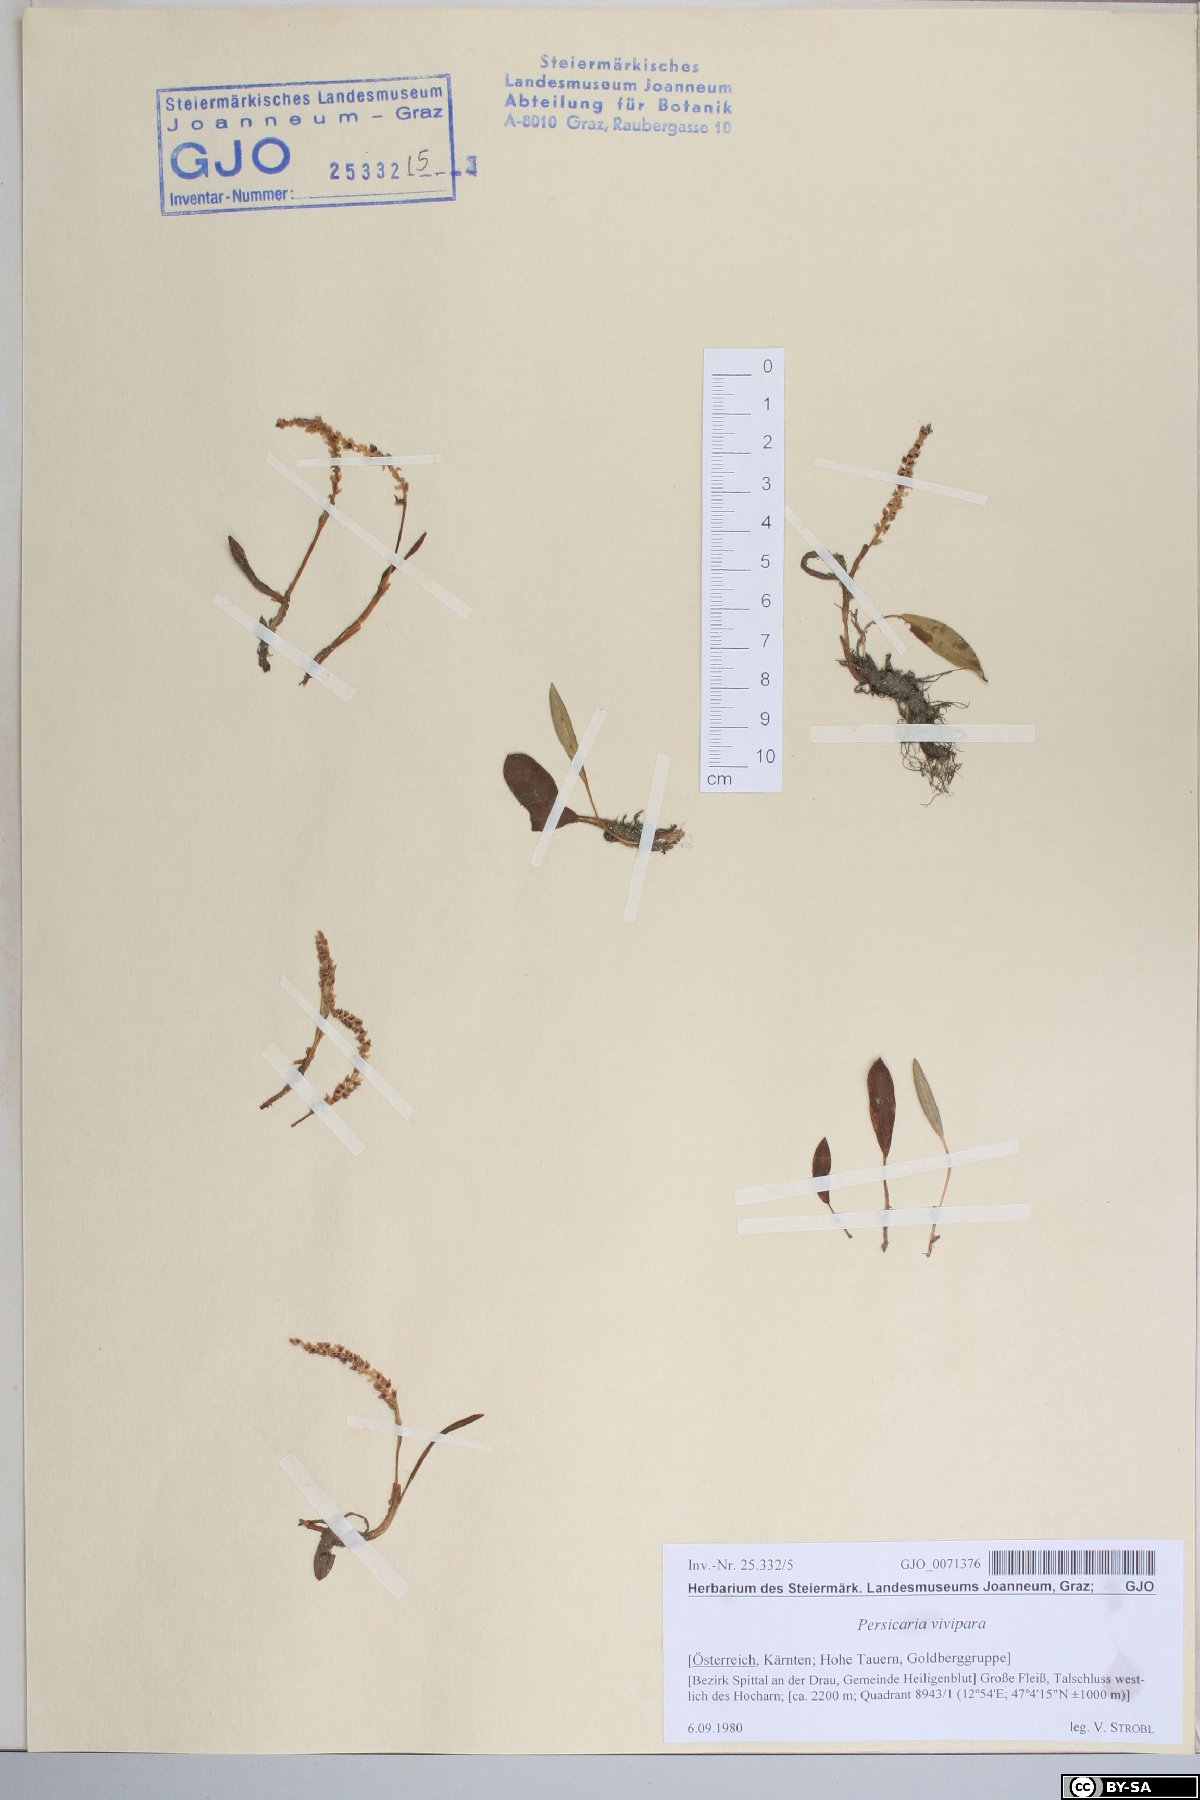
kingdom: Plantae
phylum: Tracheophyta
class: Magnoliopsida
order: Caryophyllales
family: Polygonaceae
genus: Bistorta
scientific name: Bistorta vivipara
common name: Alpine bistort
